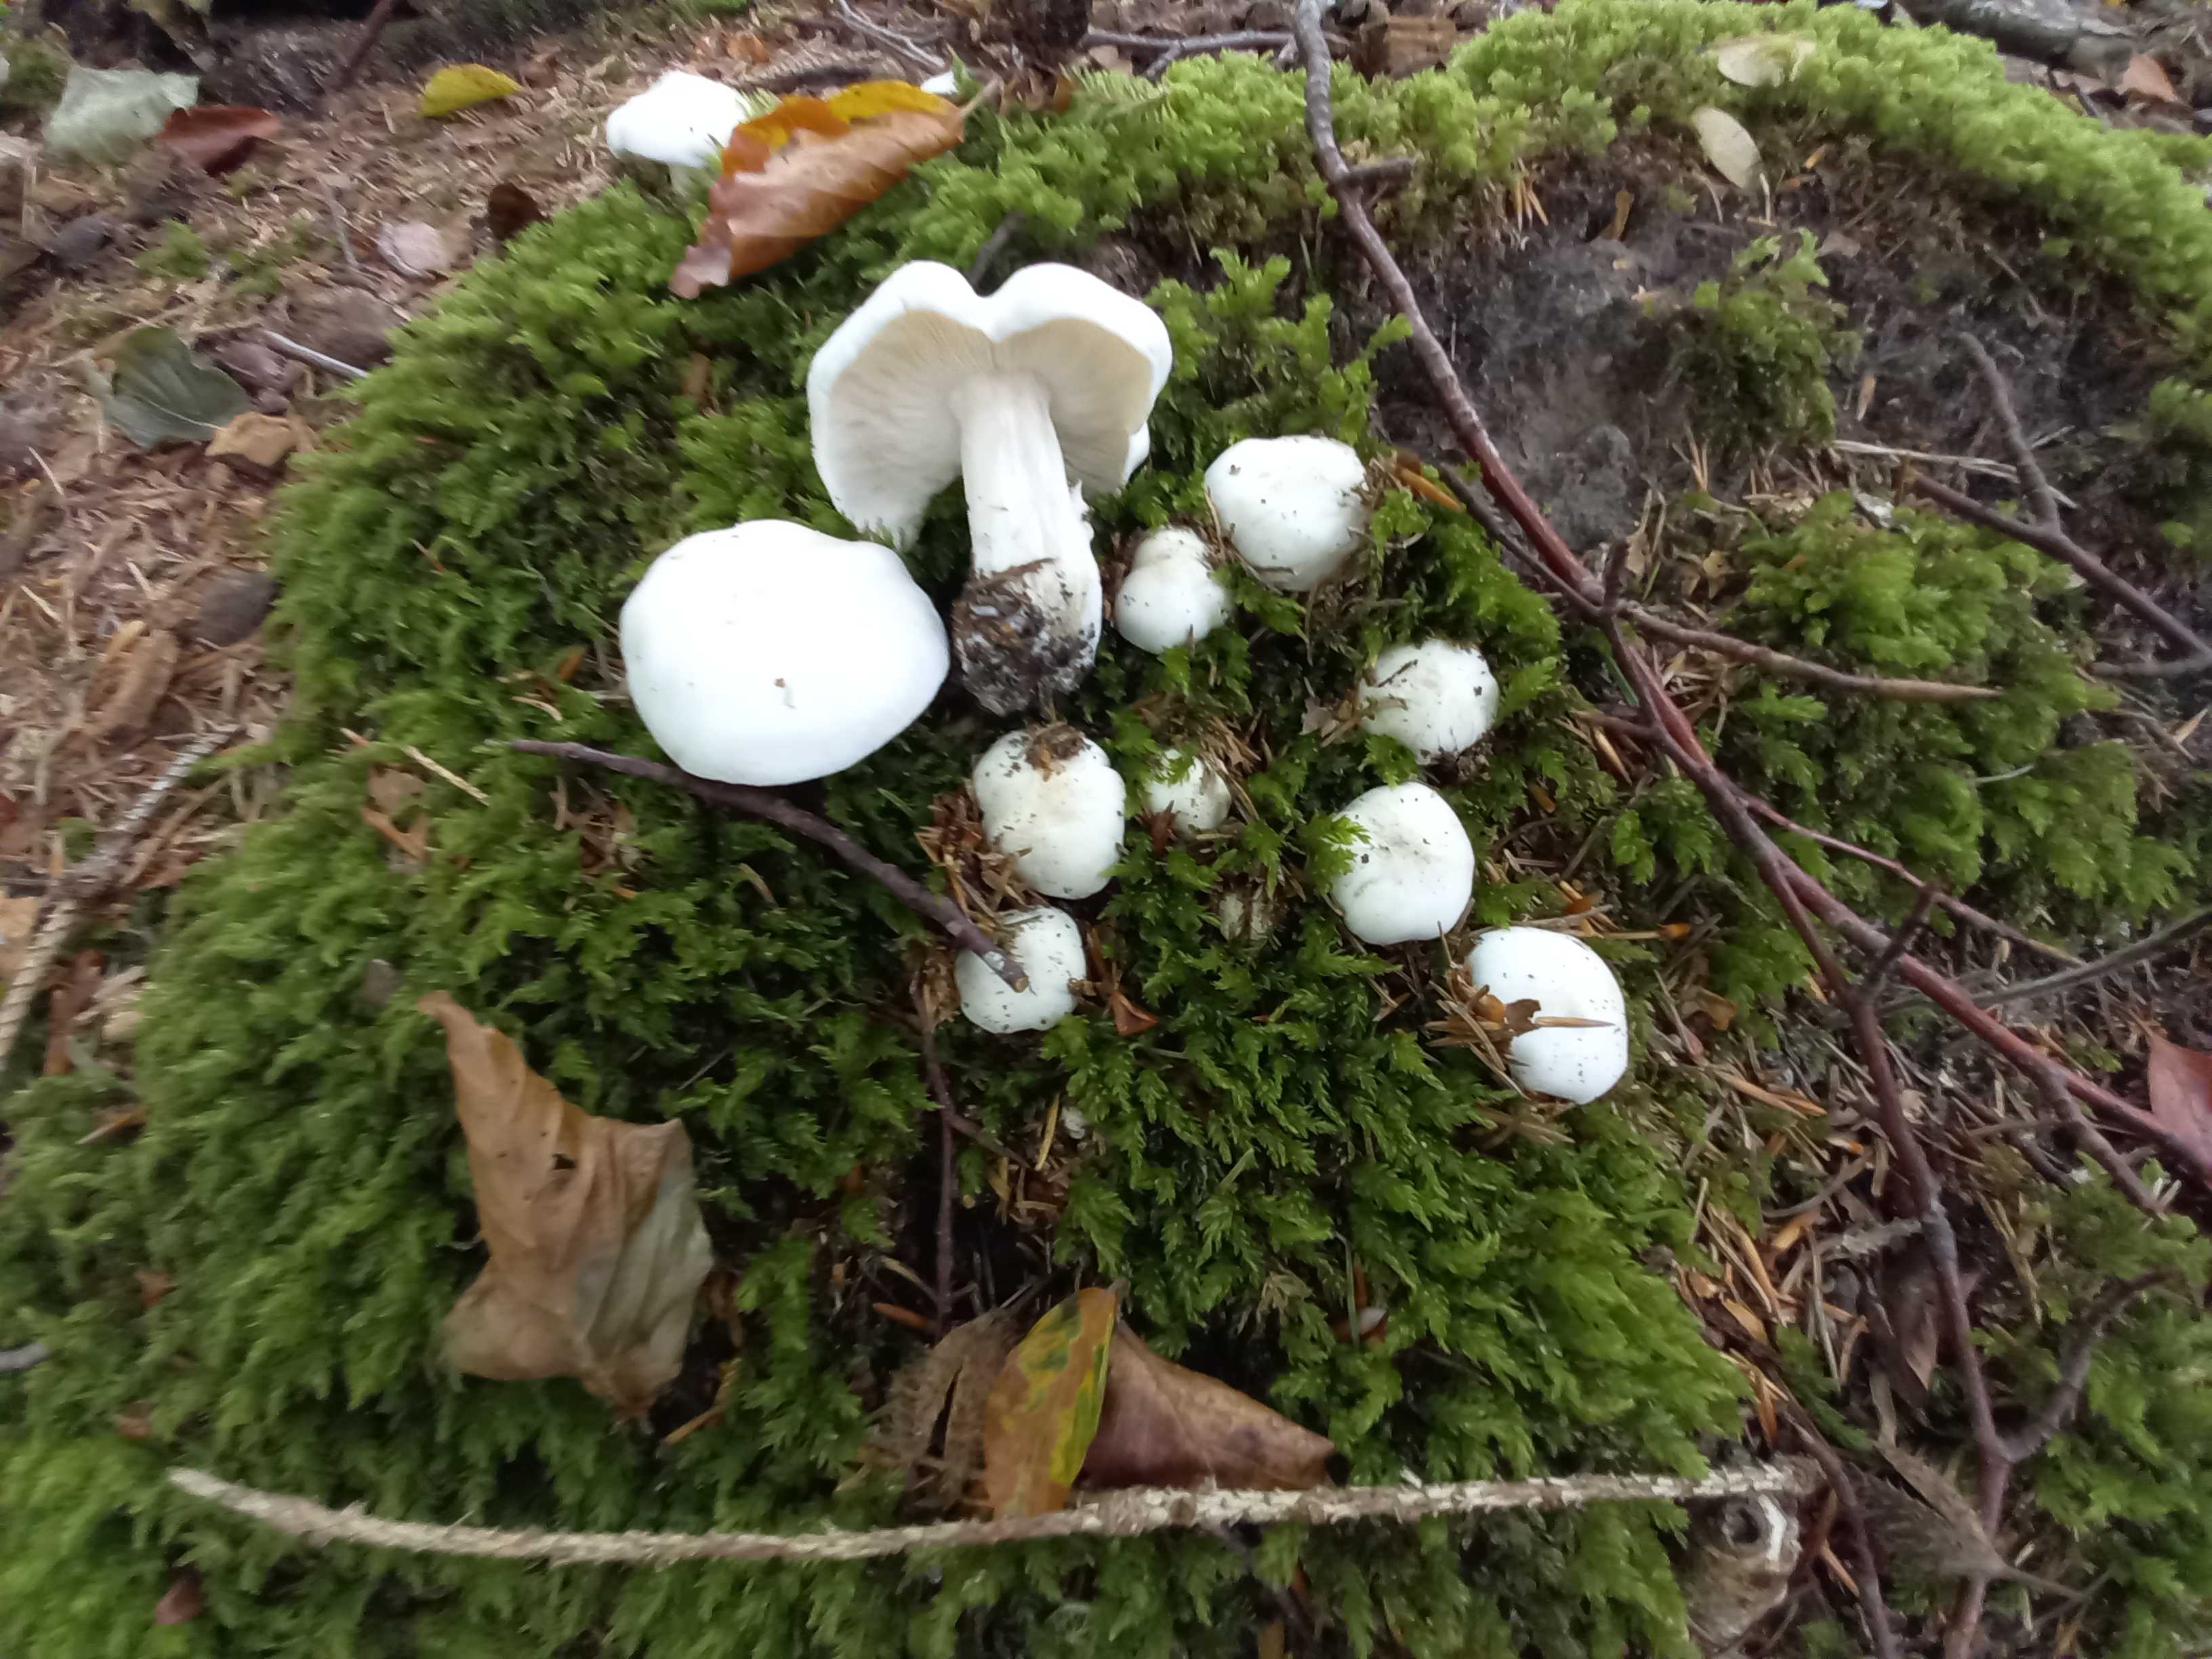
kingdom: Fungi
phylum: Basidiomycota
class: Agaricomycetes
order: Agaricales
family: Tricholomataceae
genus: Tricholoma
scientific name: Tricholoma columbetta
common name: silke-ridderhat
